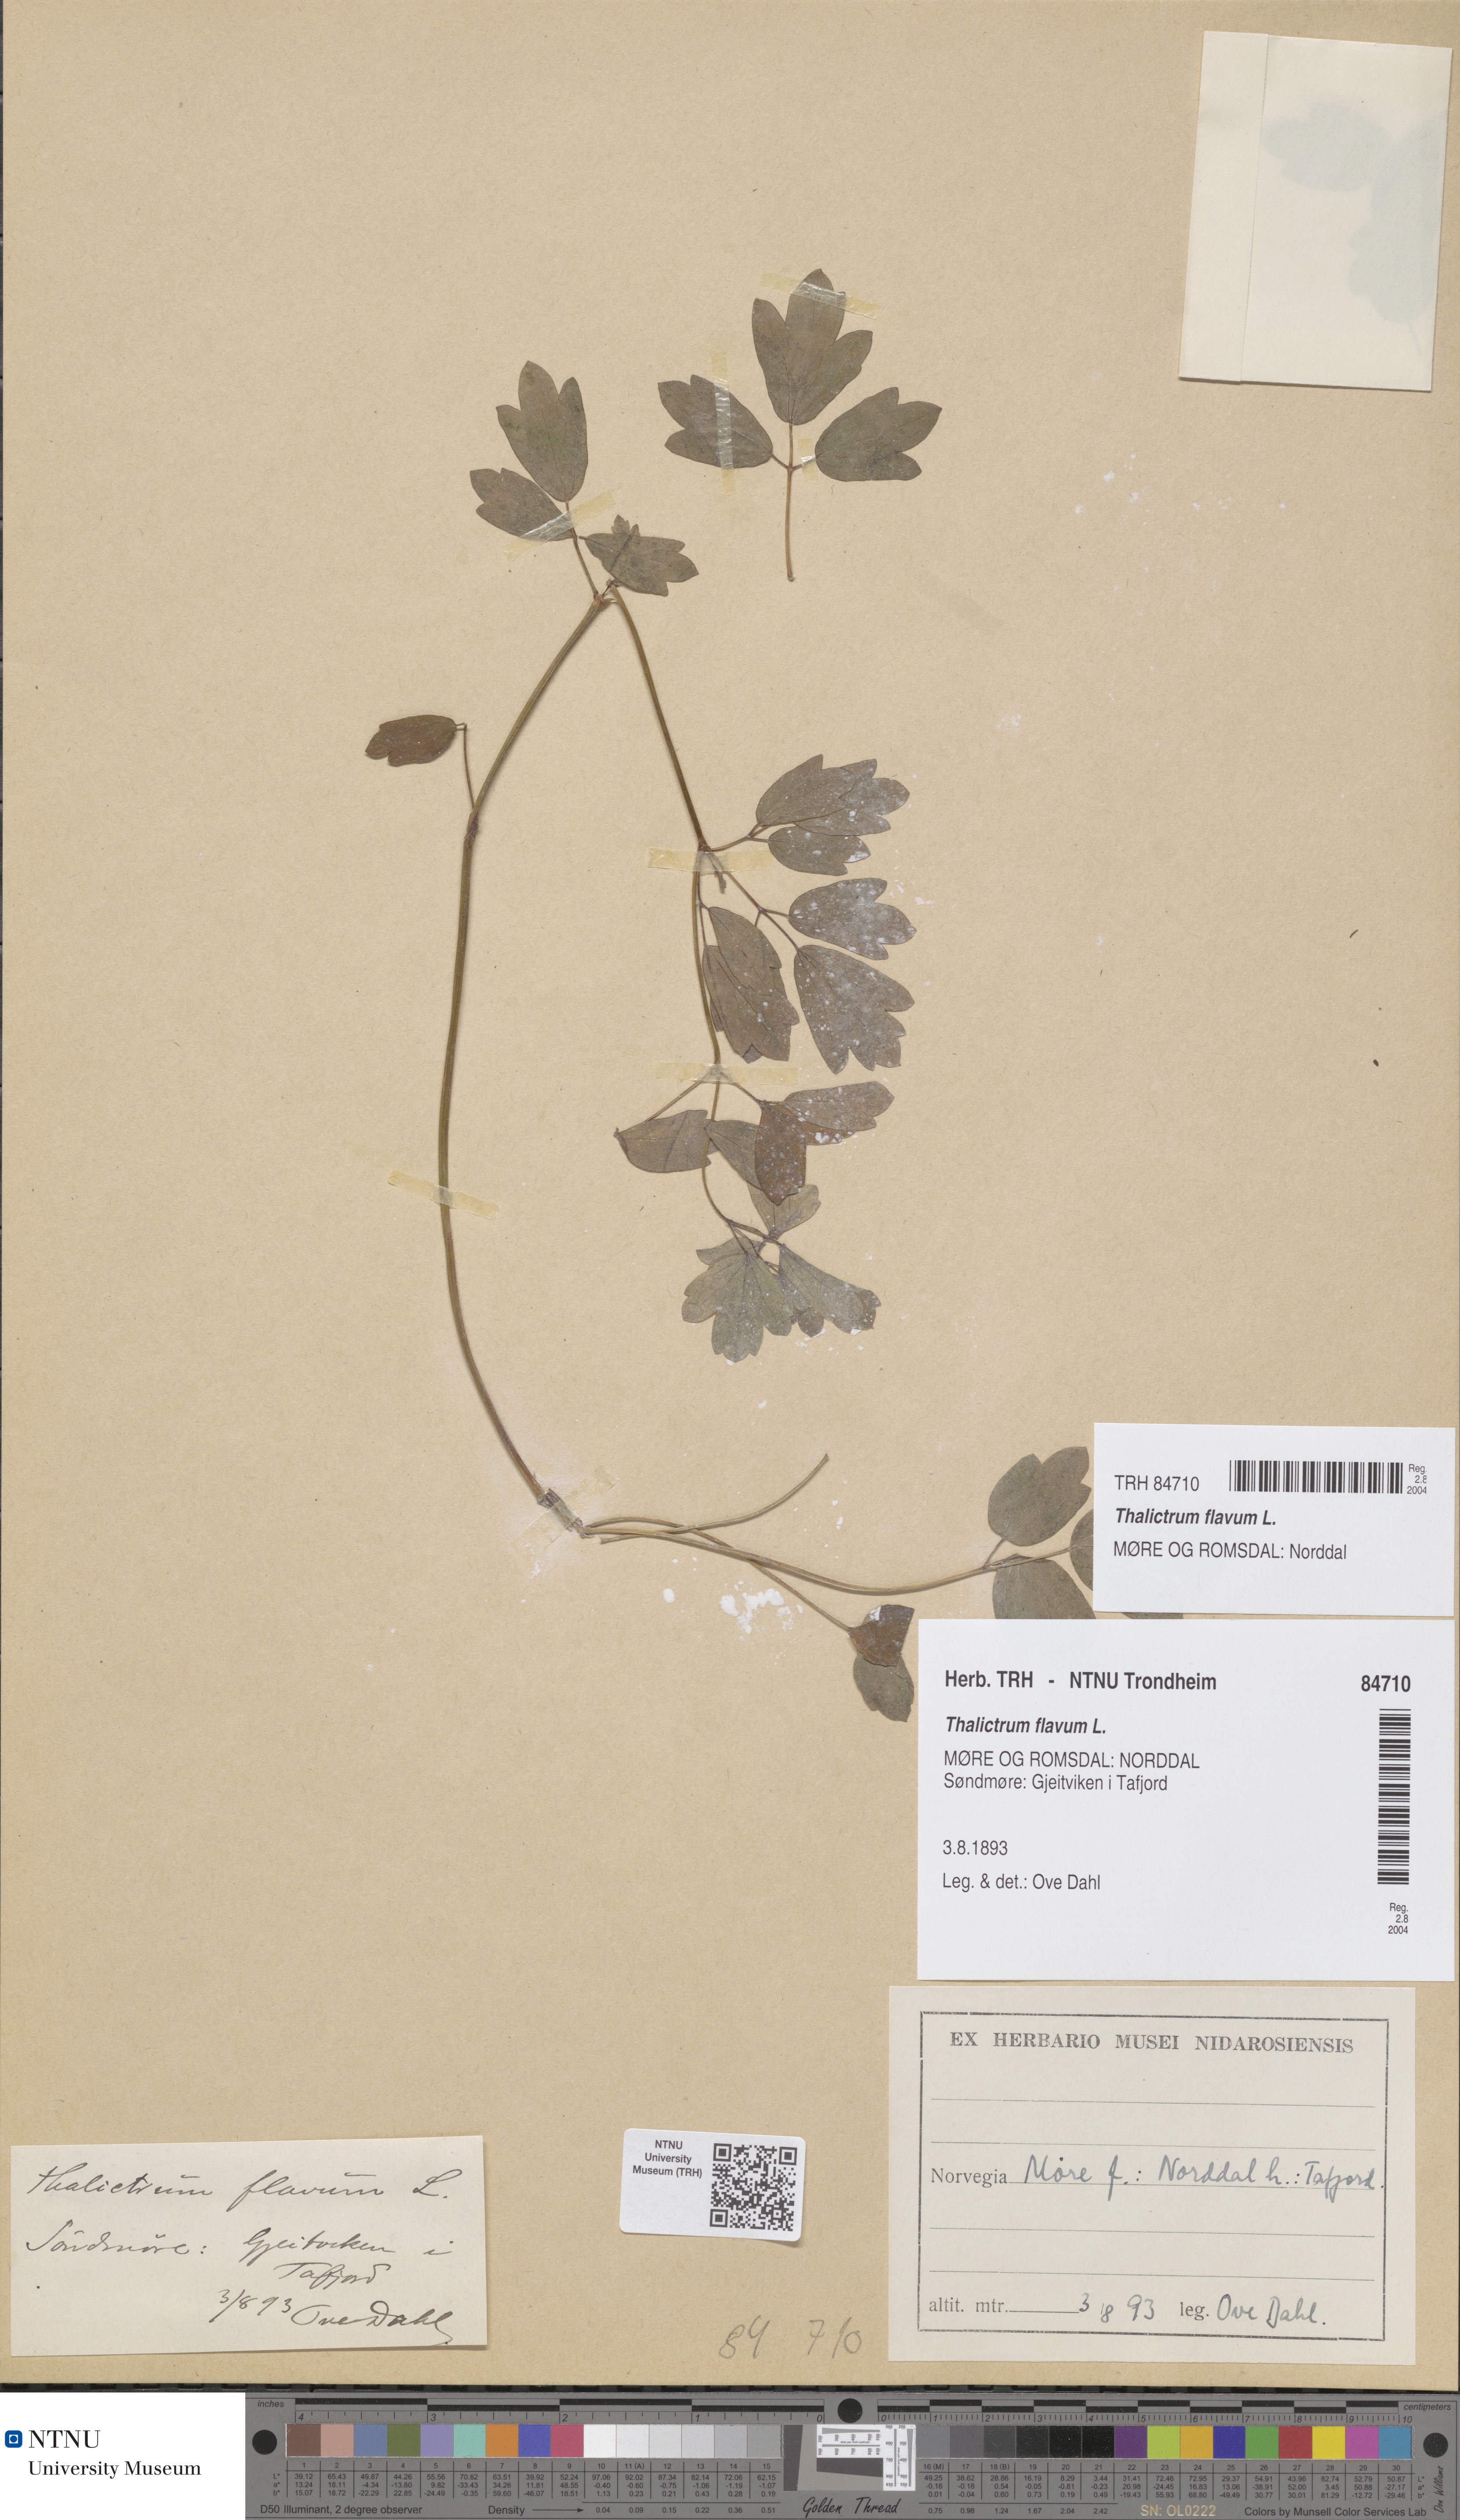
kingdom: Plantae
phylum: Tracheophyta
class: Magnoliopsida
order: Ranunculales
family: Ranunculaceae
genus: Thalictrum
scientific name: Thalictrum flavum
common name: Common meadow-rue
